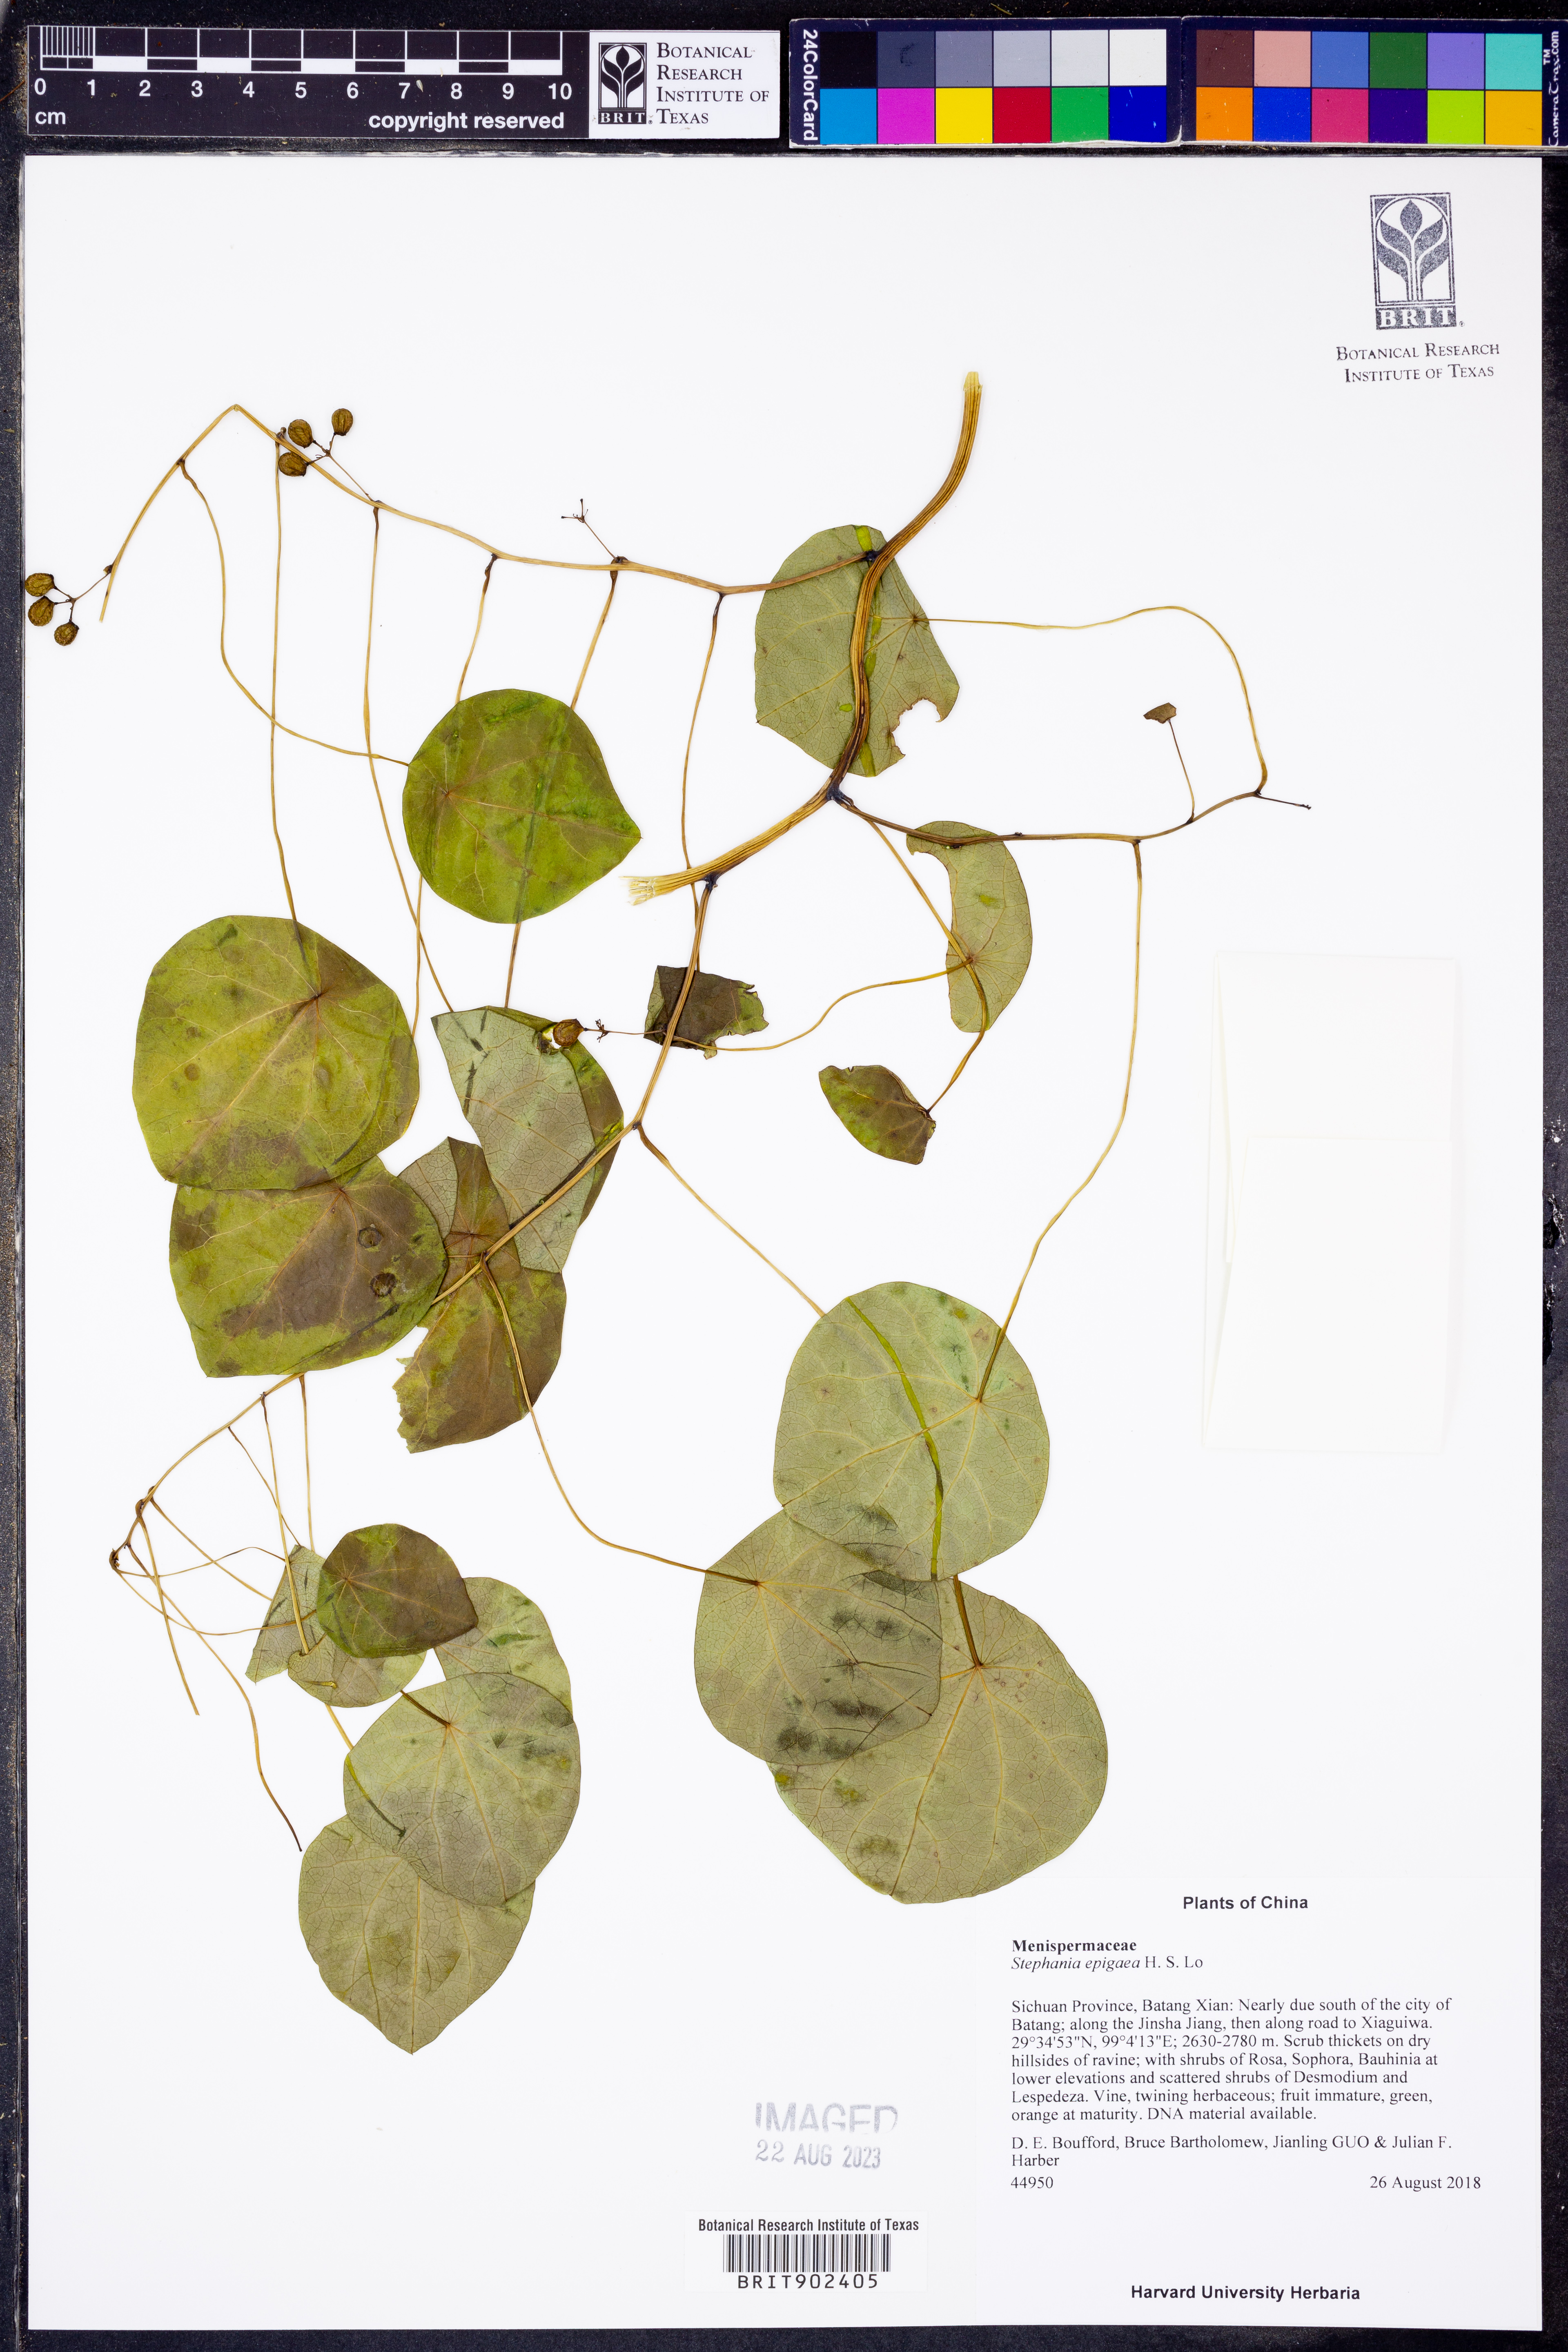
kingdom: Plantae
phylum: Tracheophyta
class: Magnoliopsida
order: Ranunculales
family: Menispermaceae
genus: Stephania
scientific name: Stephania
